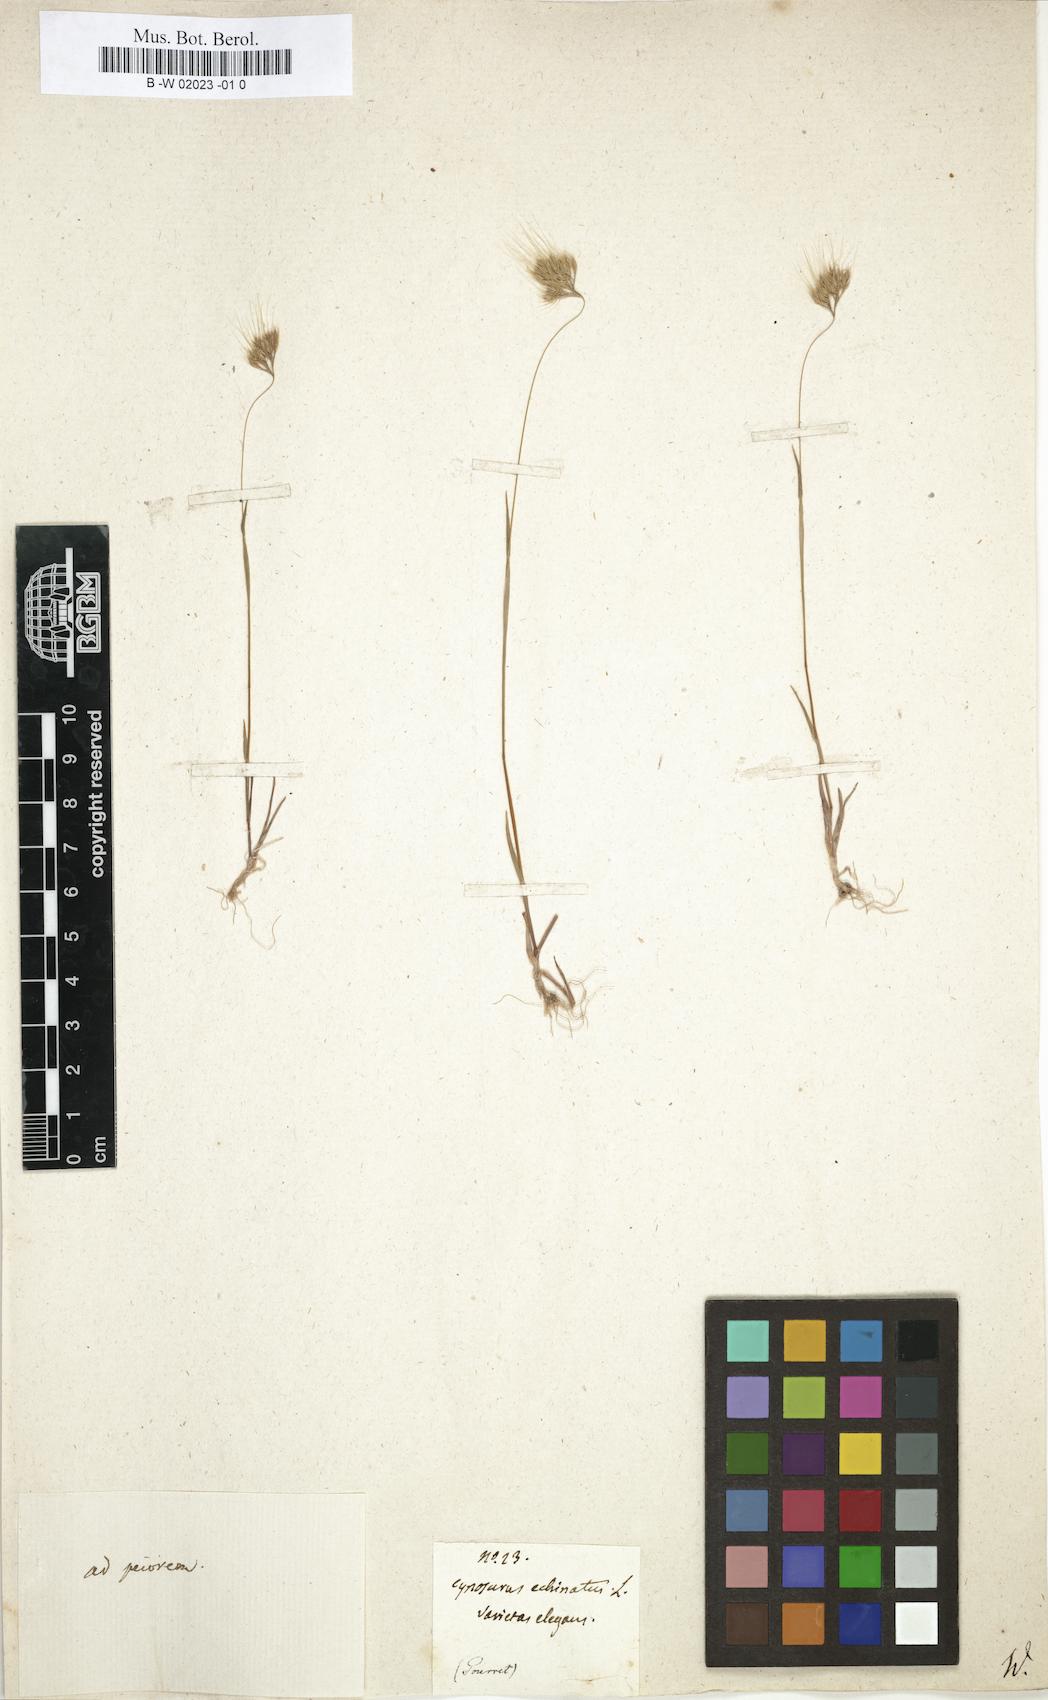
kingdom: Plantae
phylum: Tracheophyta
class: Liliopsida
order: Poales
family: Poaceae
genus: Cynosurus
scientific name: Cynosurus
